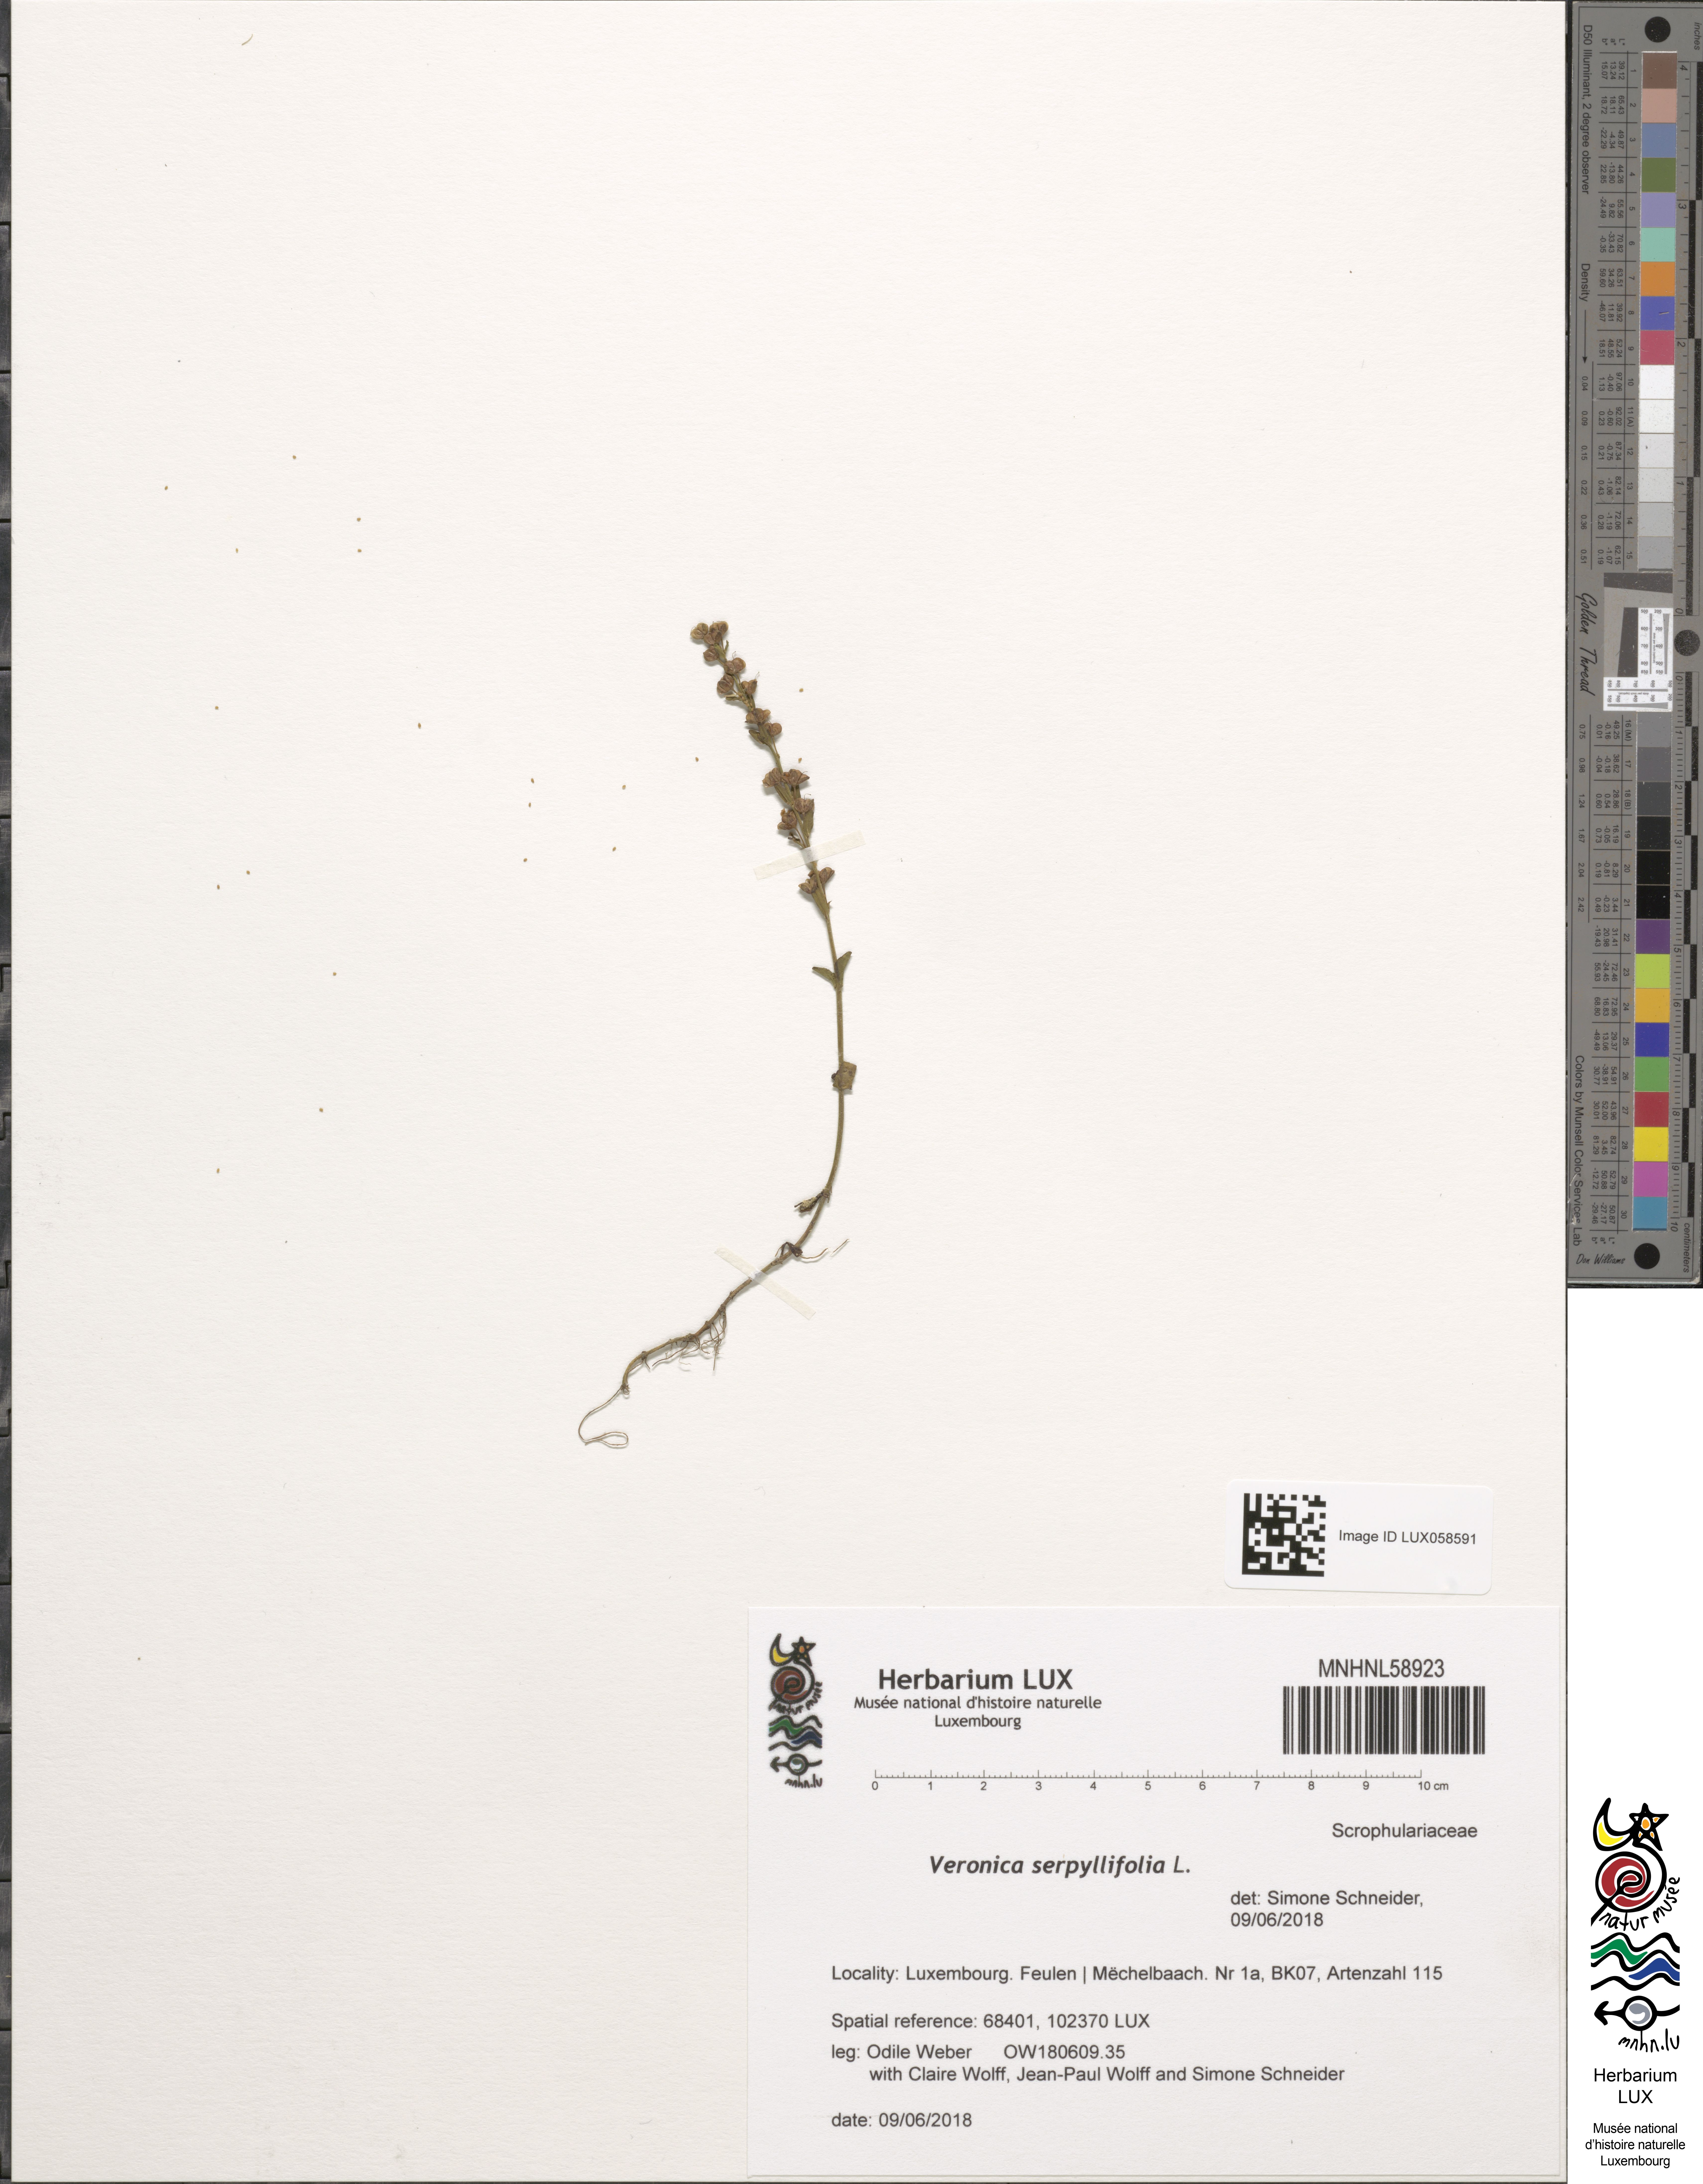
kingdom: Plantae
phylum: Tracheophyta
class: Magnoliopsida
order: Lamiales
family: Plantaginaceae
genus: Veronica
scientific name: Veronica serpyllifolia
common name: Thyme-leaved speedwell
